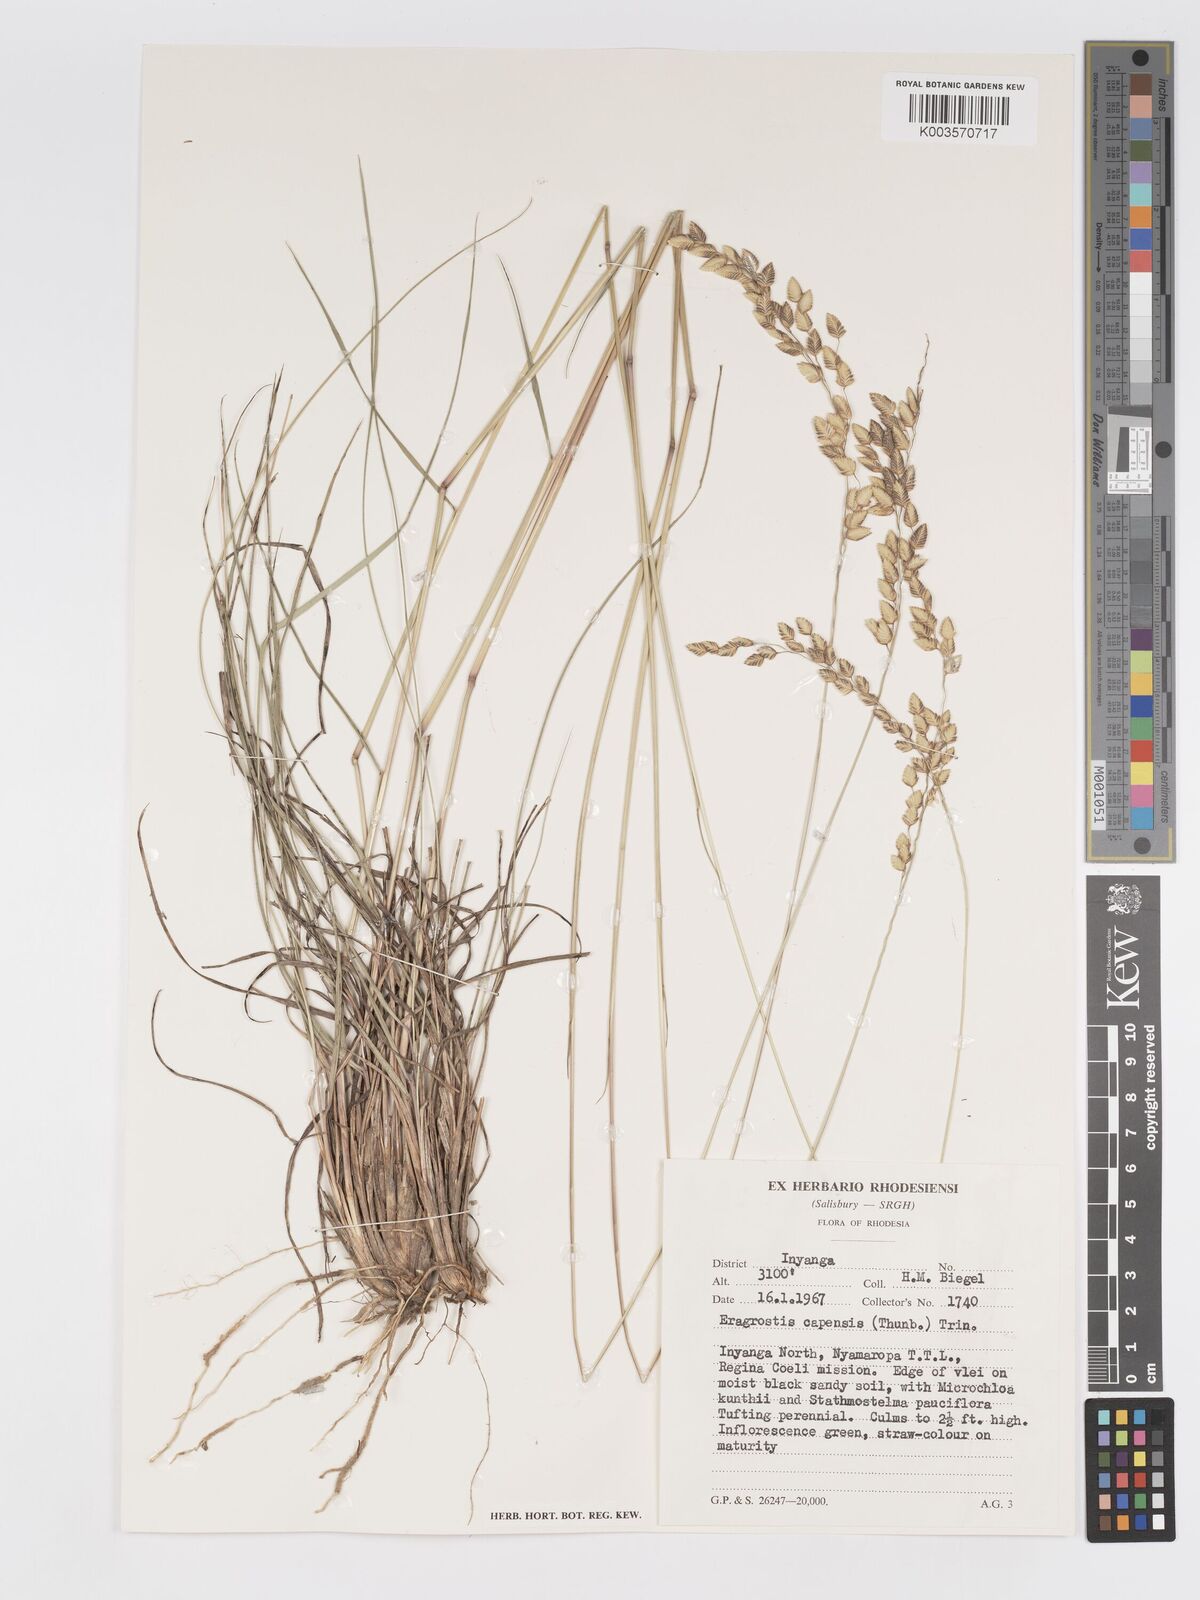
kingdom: Plantae
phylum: Tracheophyta
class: Liliopsida
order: Poales
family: Poaceae
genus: Eragrostis
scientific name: Eragrostis capensis
